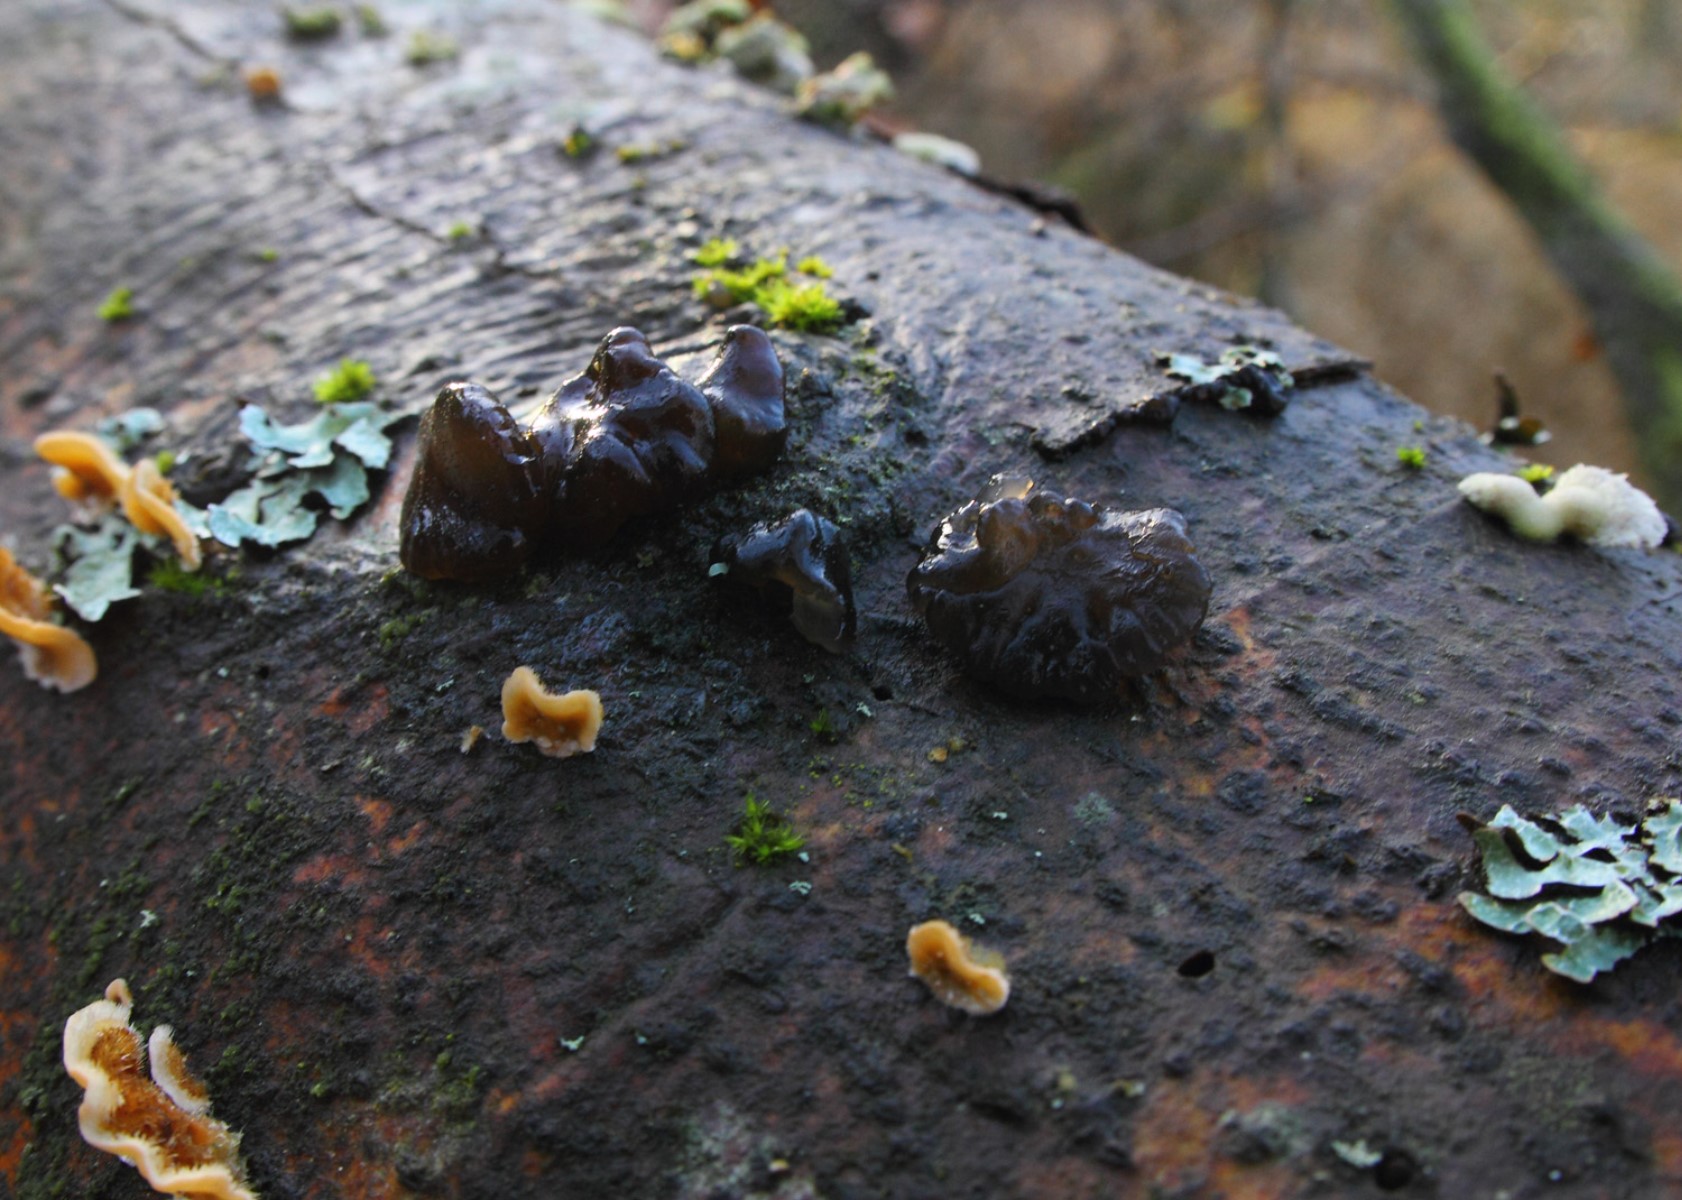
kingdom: Fungi
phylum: Basidiomycota
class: Agaricomycetes
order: Auriculariales
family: Auriculariaceae
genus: Exidia
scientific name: Exidia nigricans
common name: almindelig bævretop
